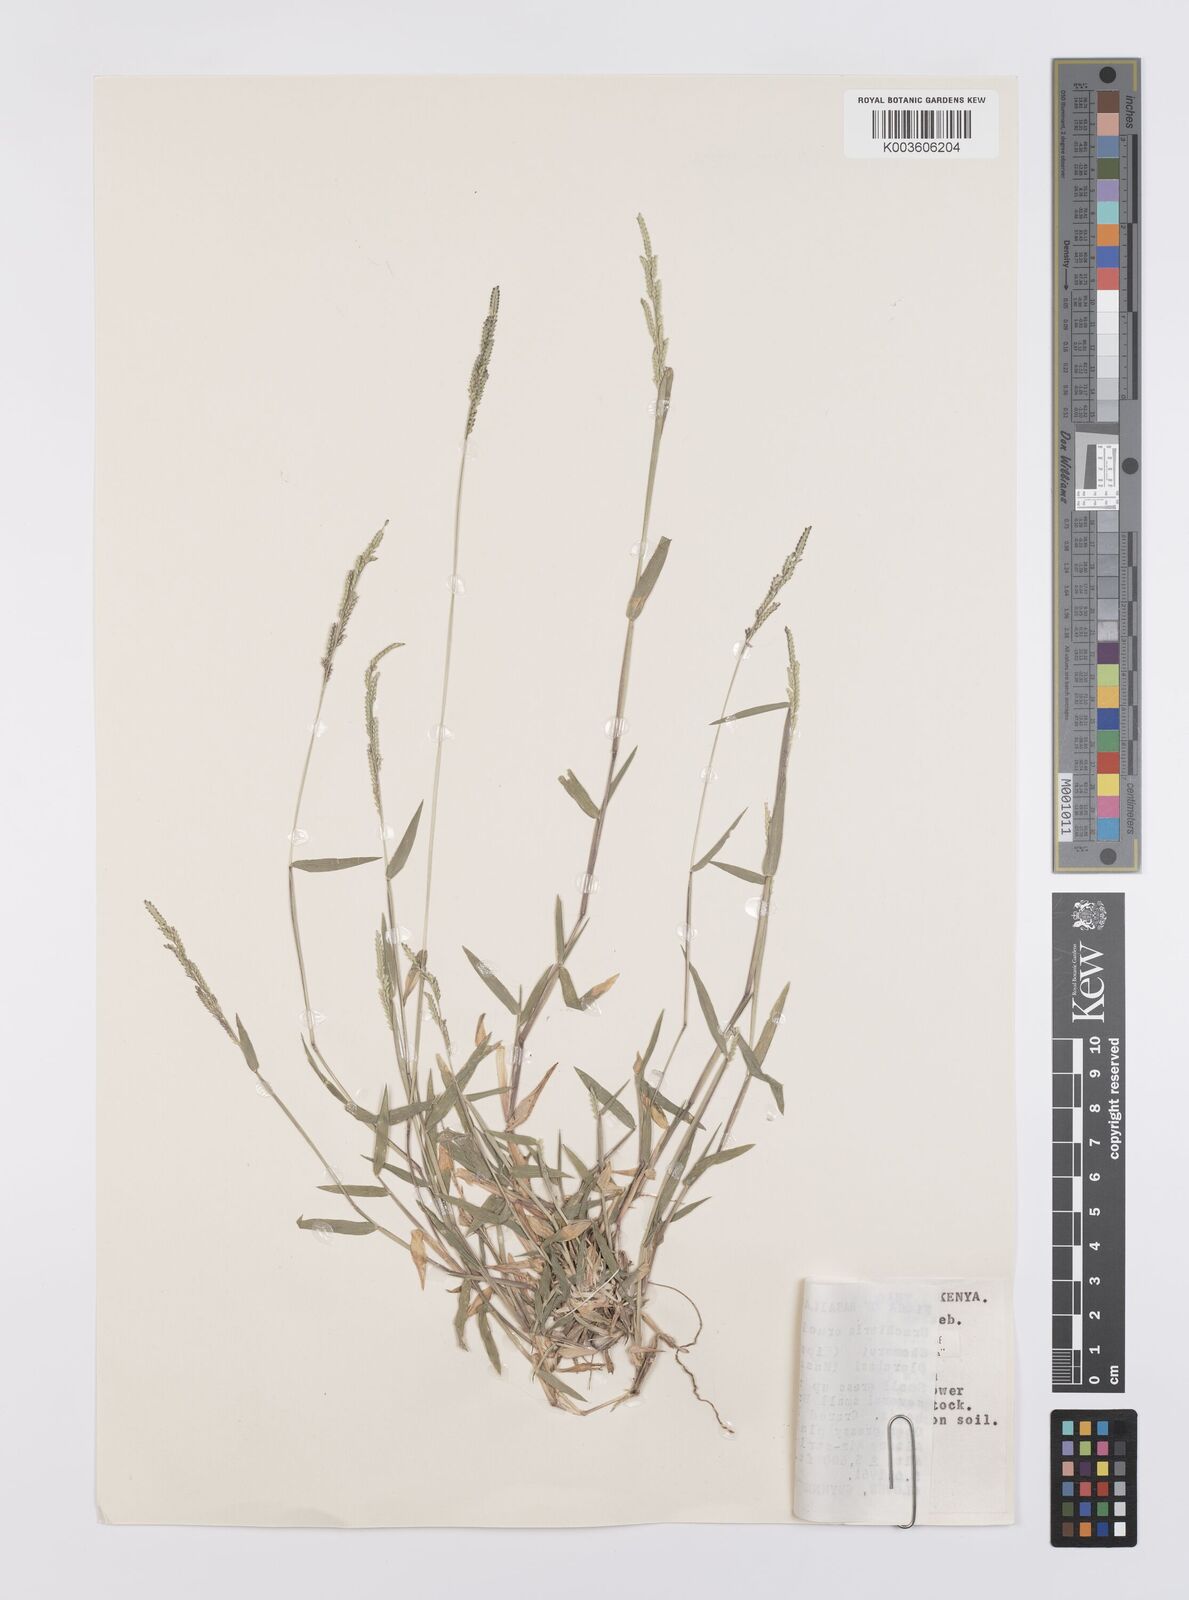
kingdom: Plantae
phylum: Tracheophyta
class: Liliopsida
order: Poales
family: Poaceae
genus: Moorochloa
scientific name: Moorochloa eruciformis
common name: Sweet signalgrass
